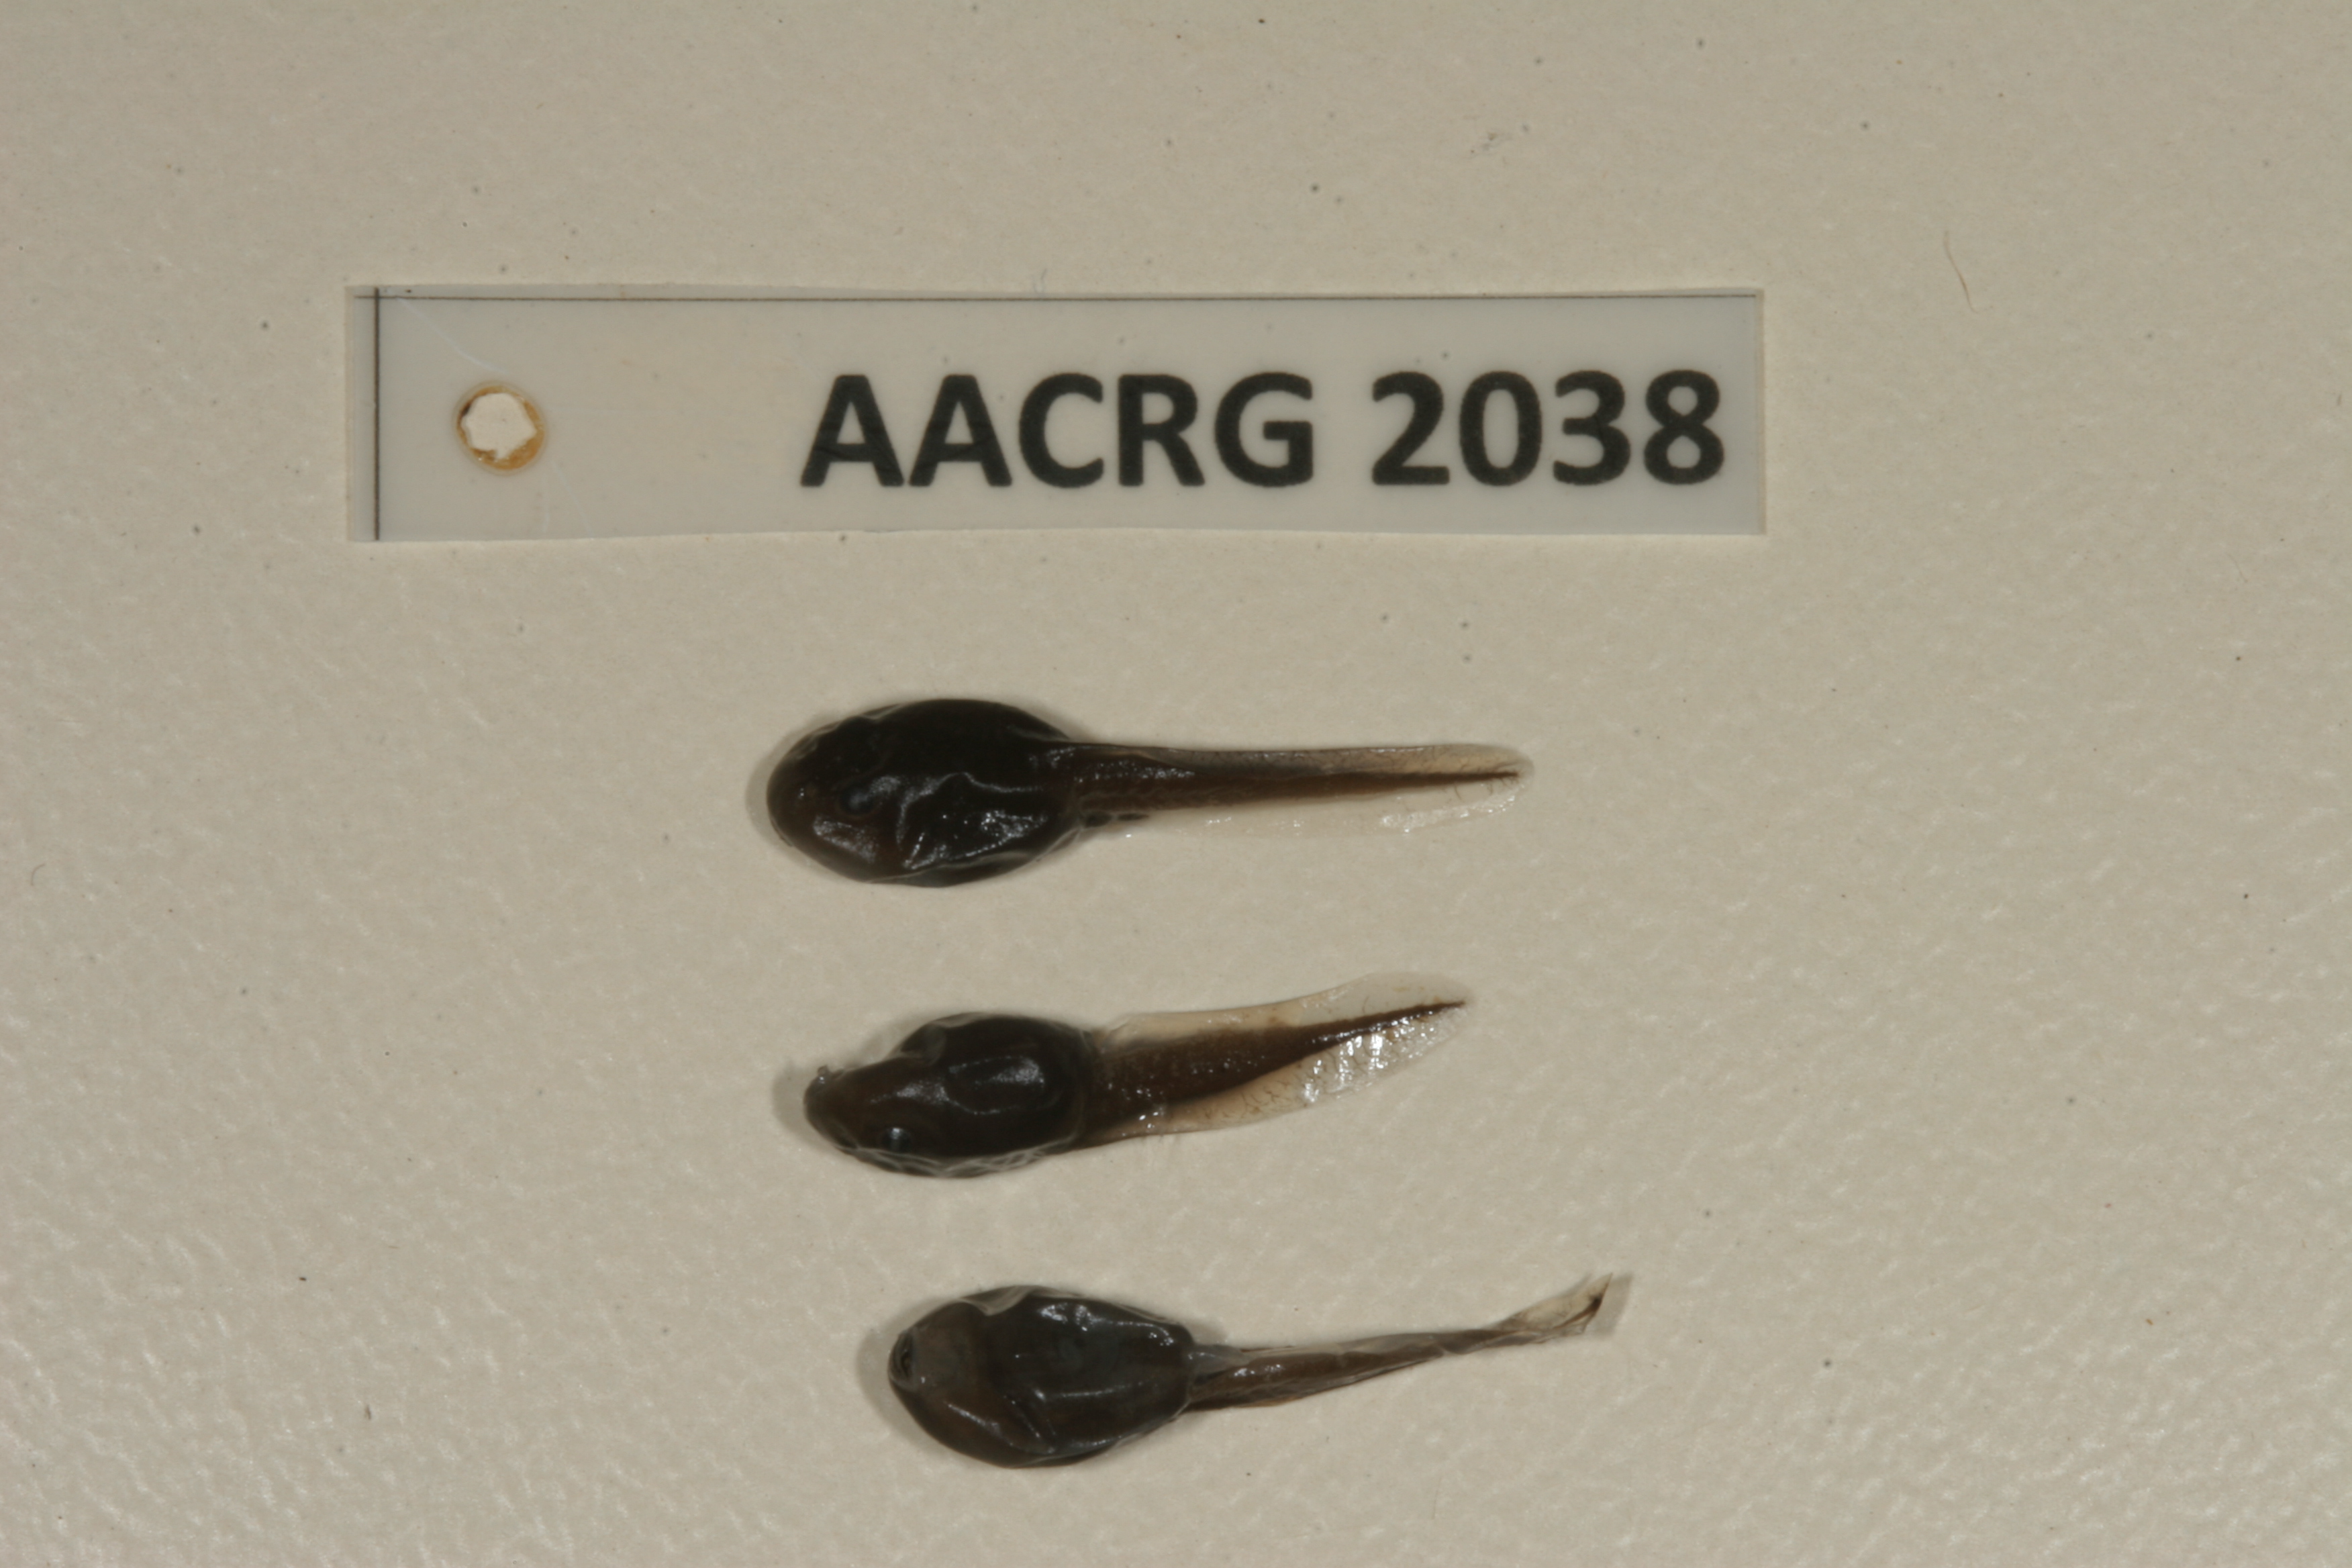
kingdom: Animalia
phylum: Chordata
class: Amphibia
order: Anura
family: Bufonidae
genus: Sclerophrys
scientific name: Sclerophrys garmani
